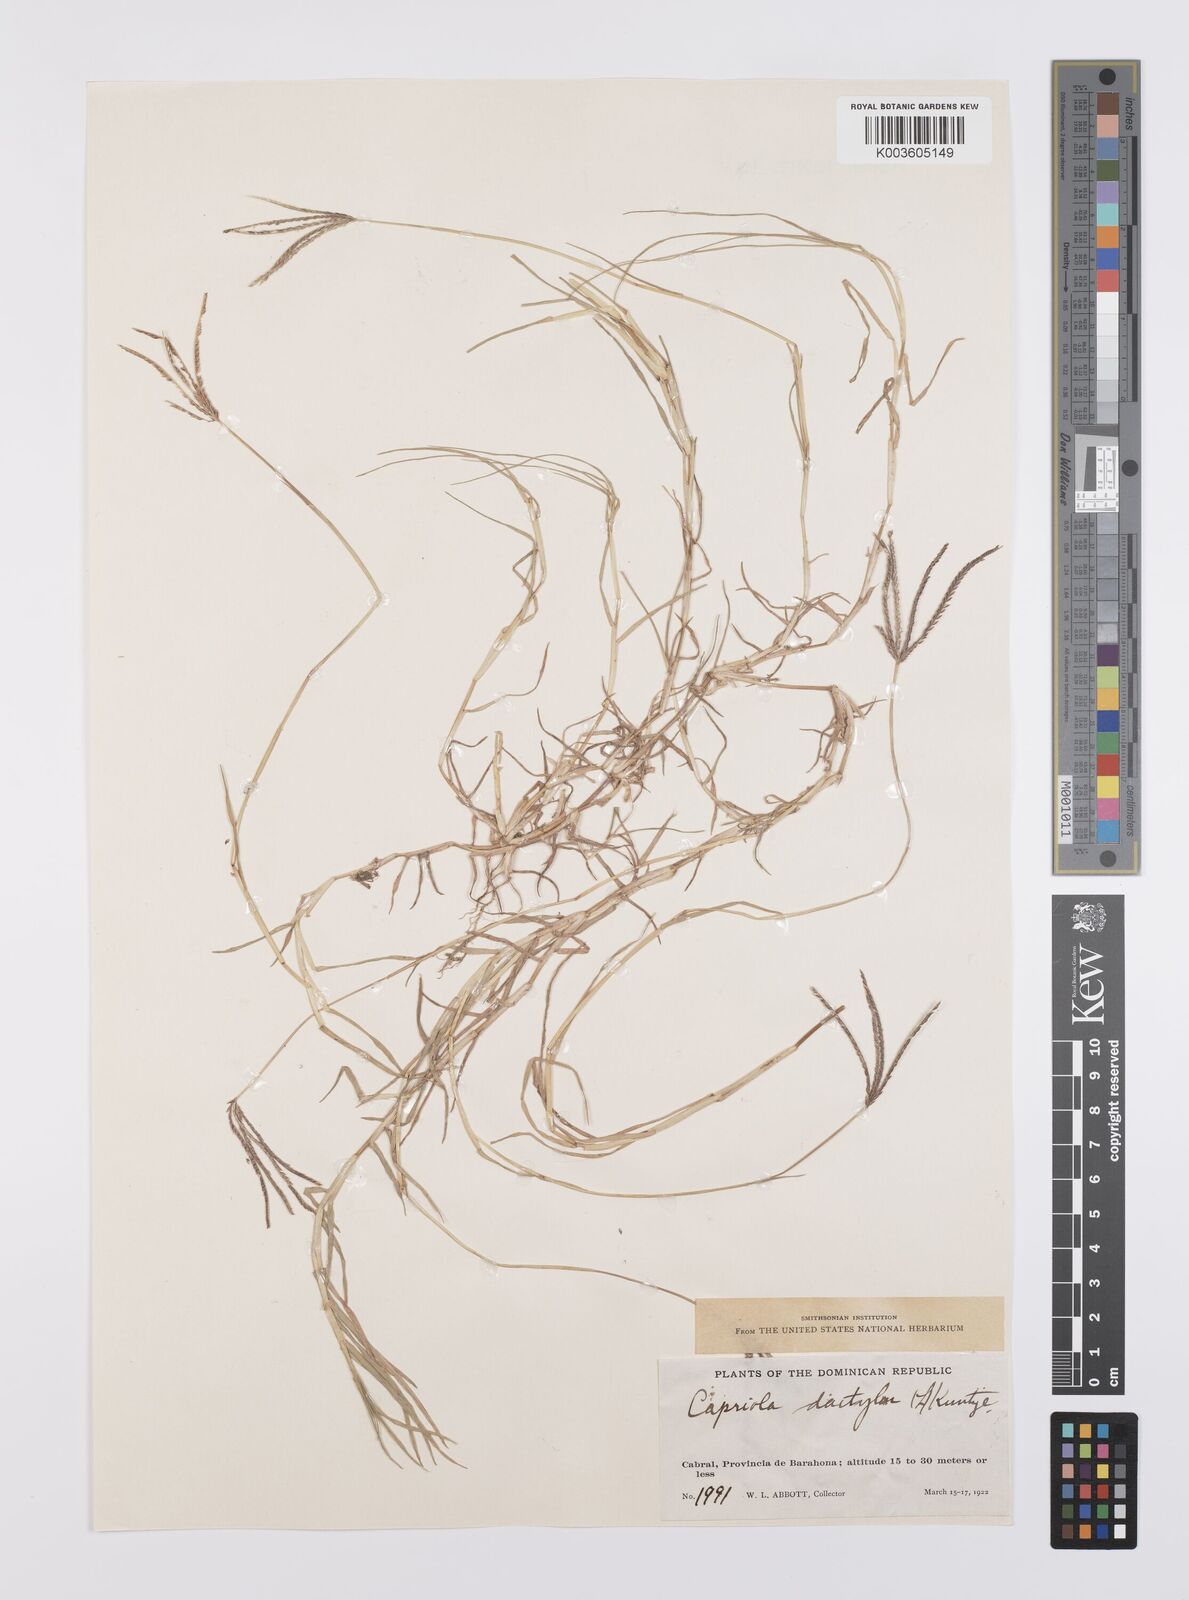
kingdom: Plantae
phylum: Tracheophyta
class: Liliopsida
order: Poales
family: Poaceae
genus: Cynodon
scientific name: Cynodon dactylon
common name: Bermuda grass
